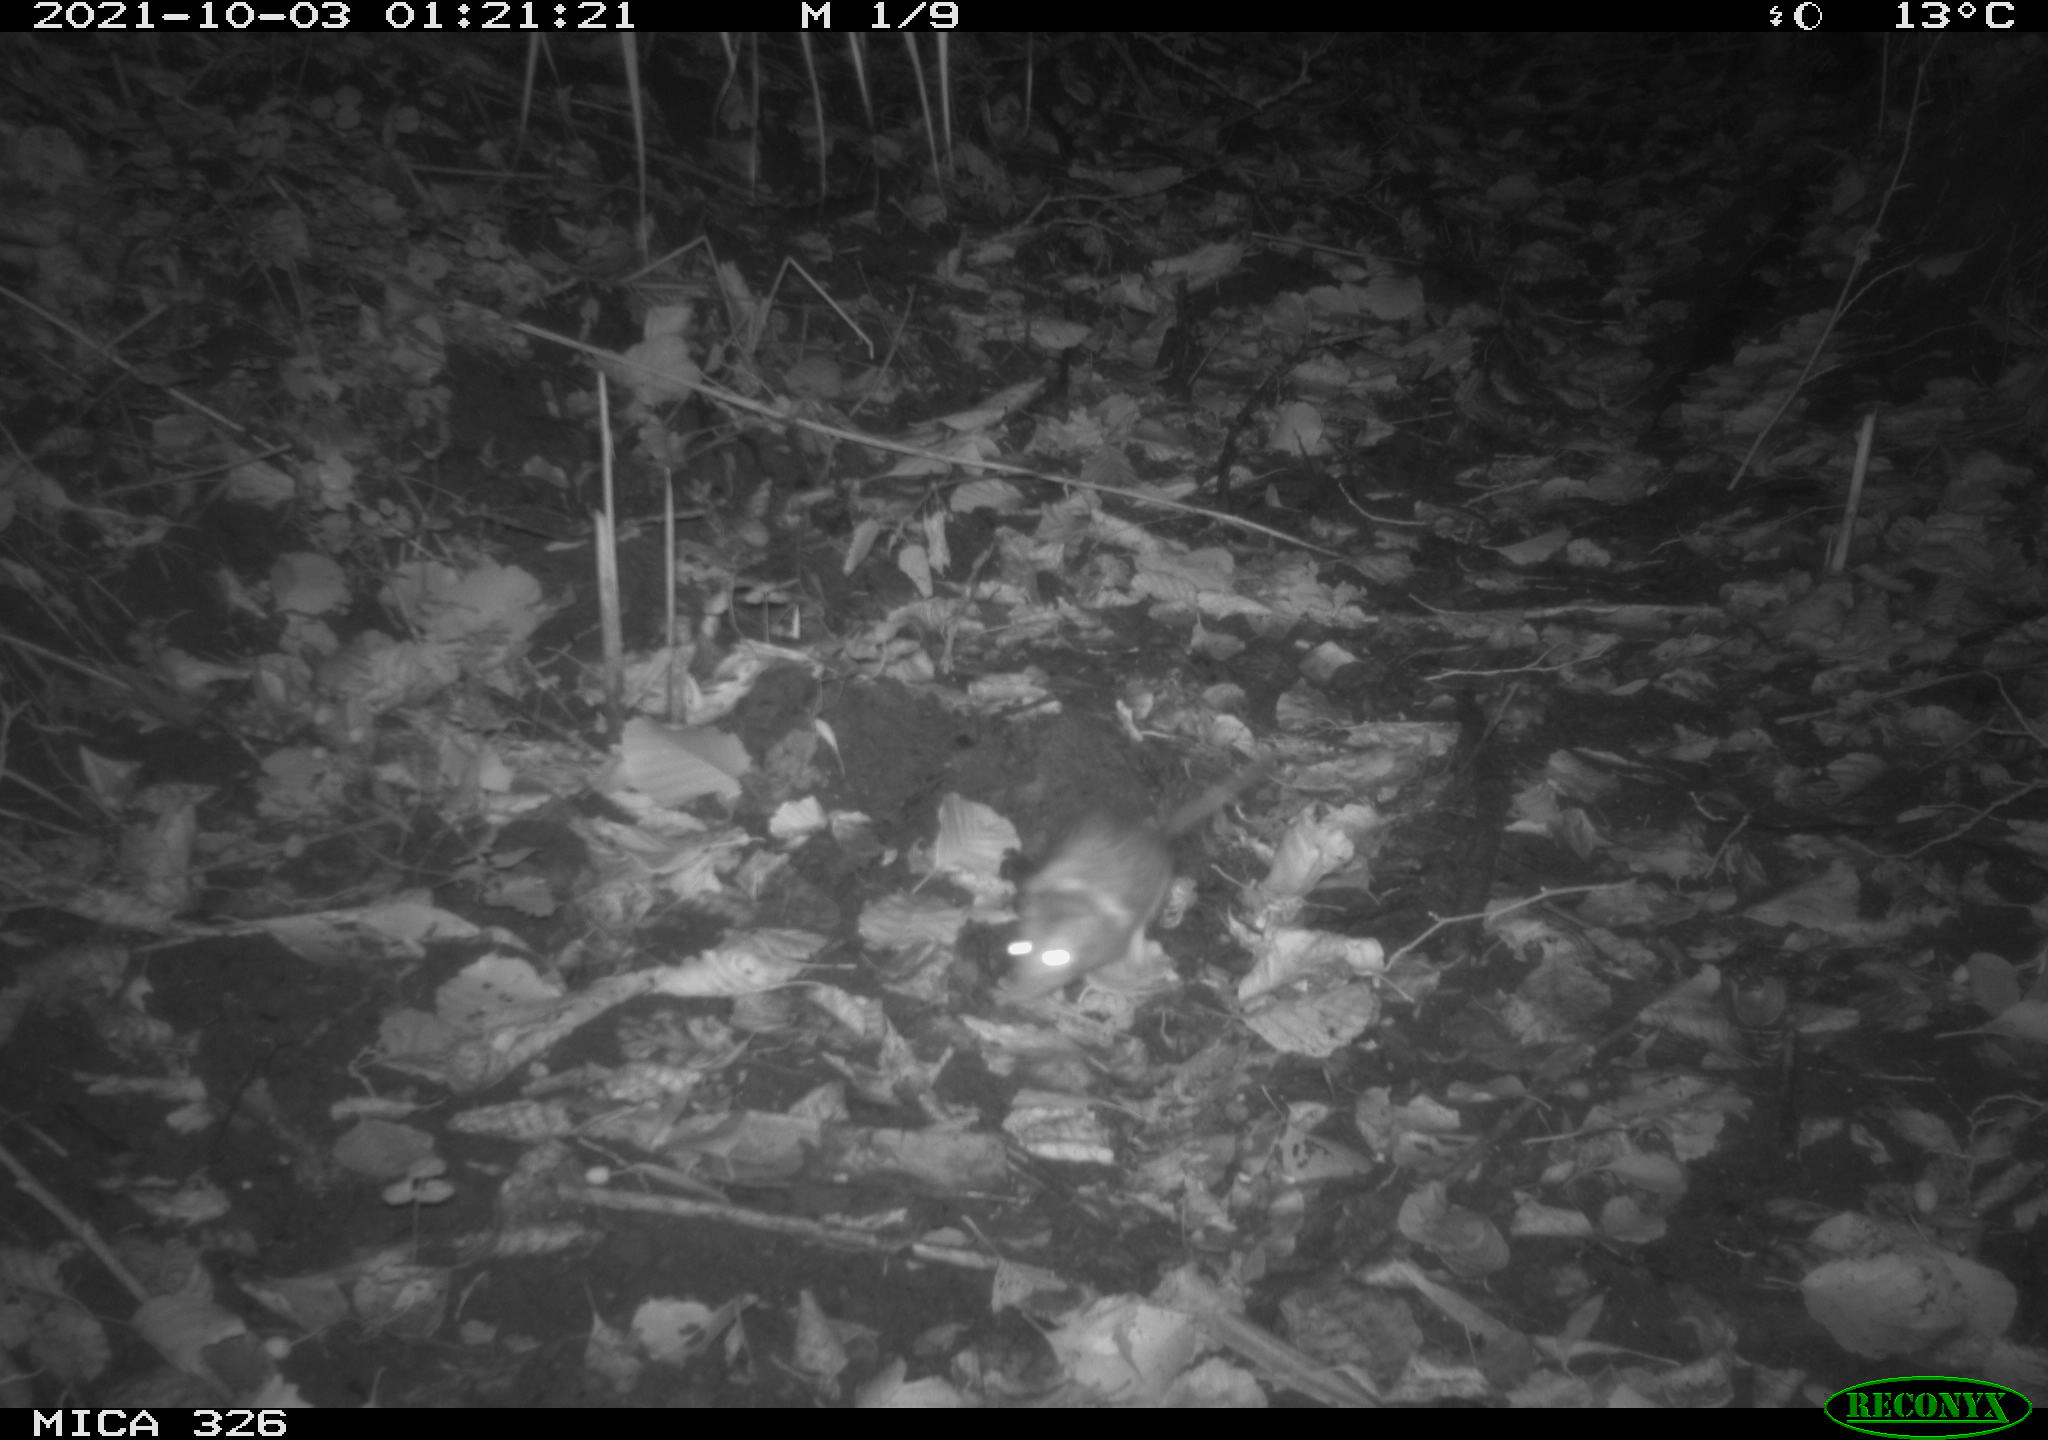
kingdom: Animalia
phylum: Chordata
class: Mammalia
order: Rodentia
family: Muridae
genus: Rattus
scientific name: Rattus norvegicus
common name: Brown rat
